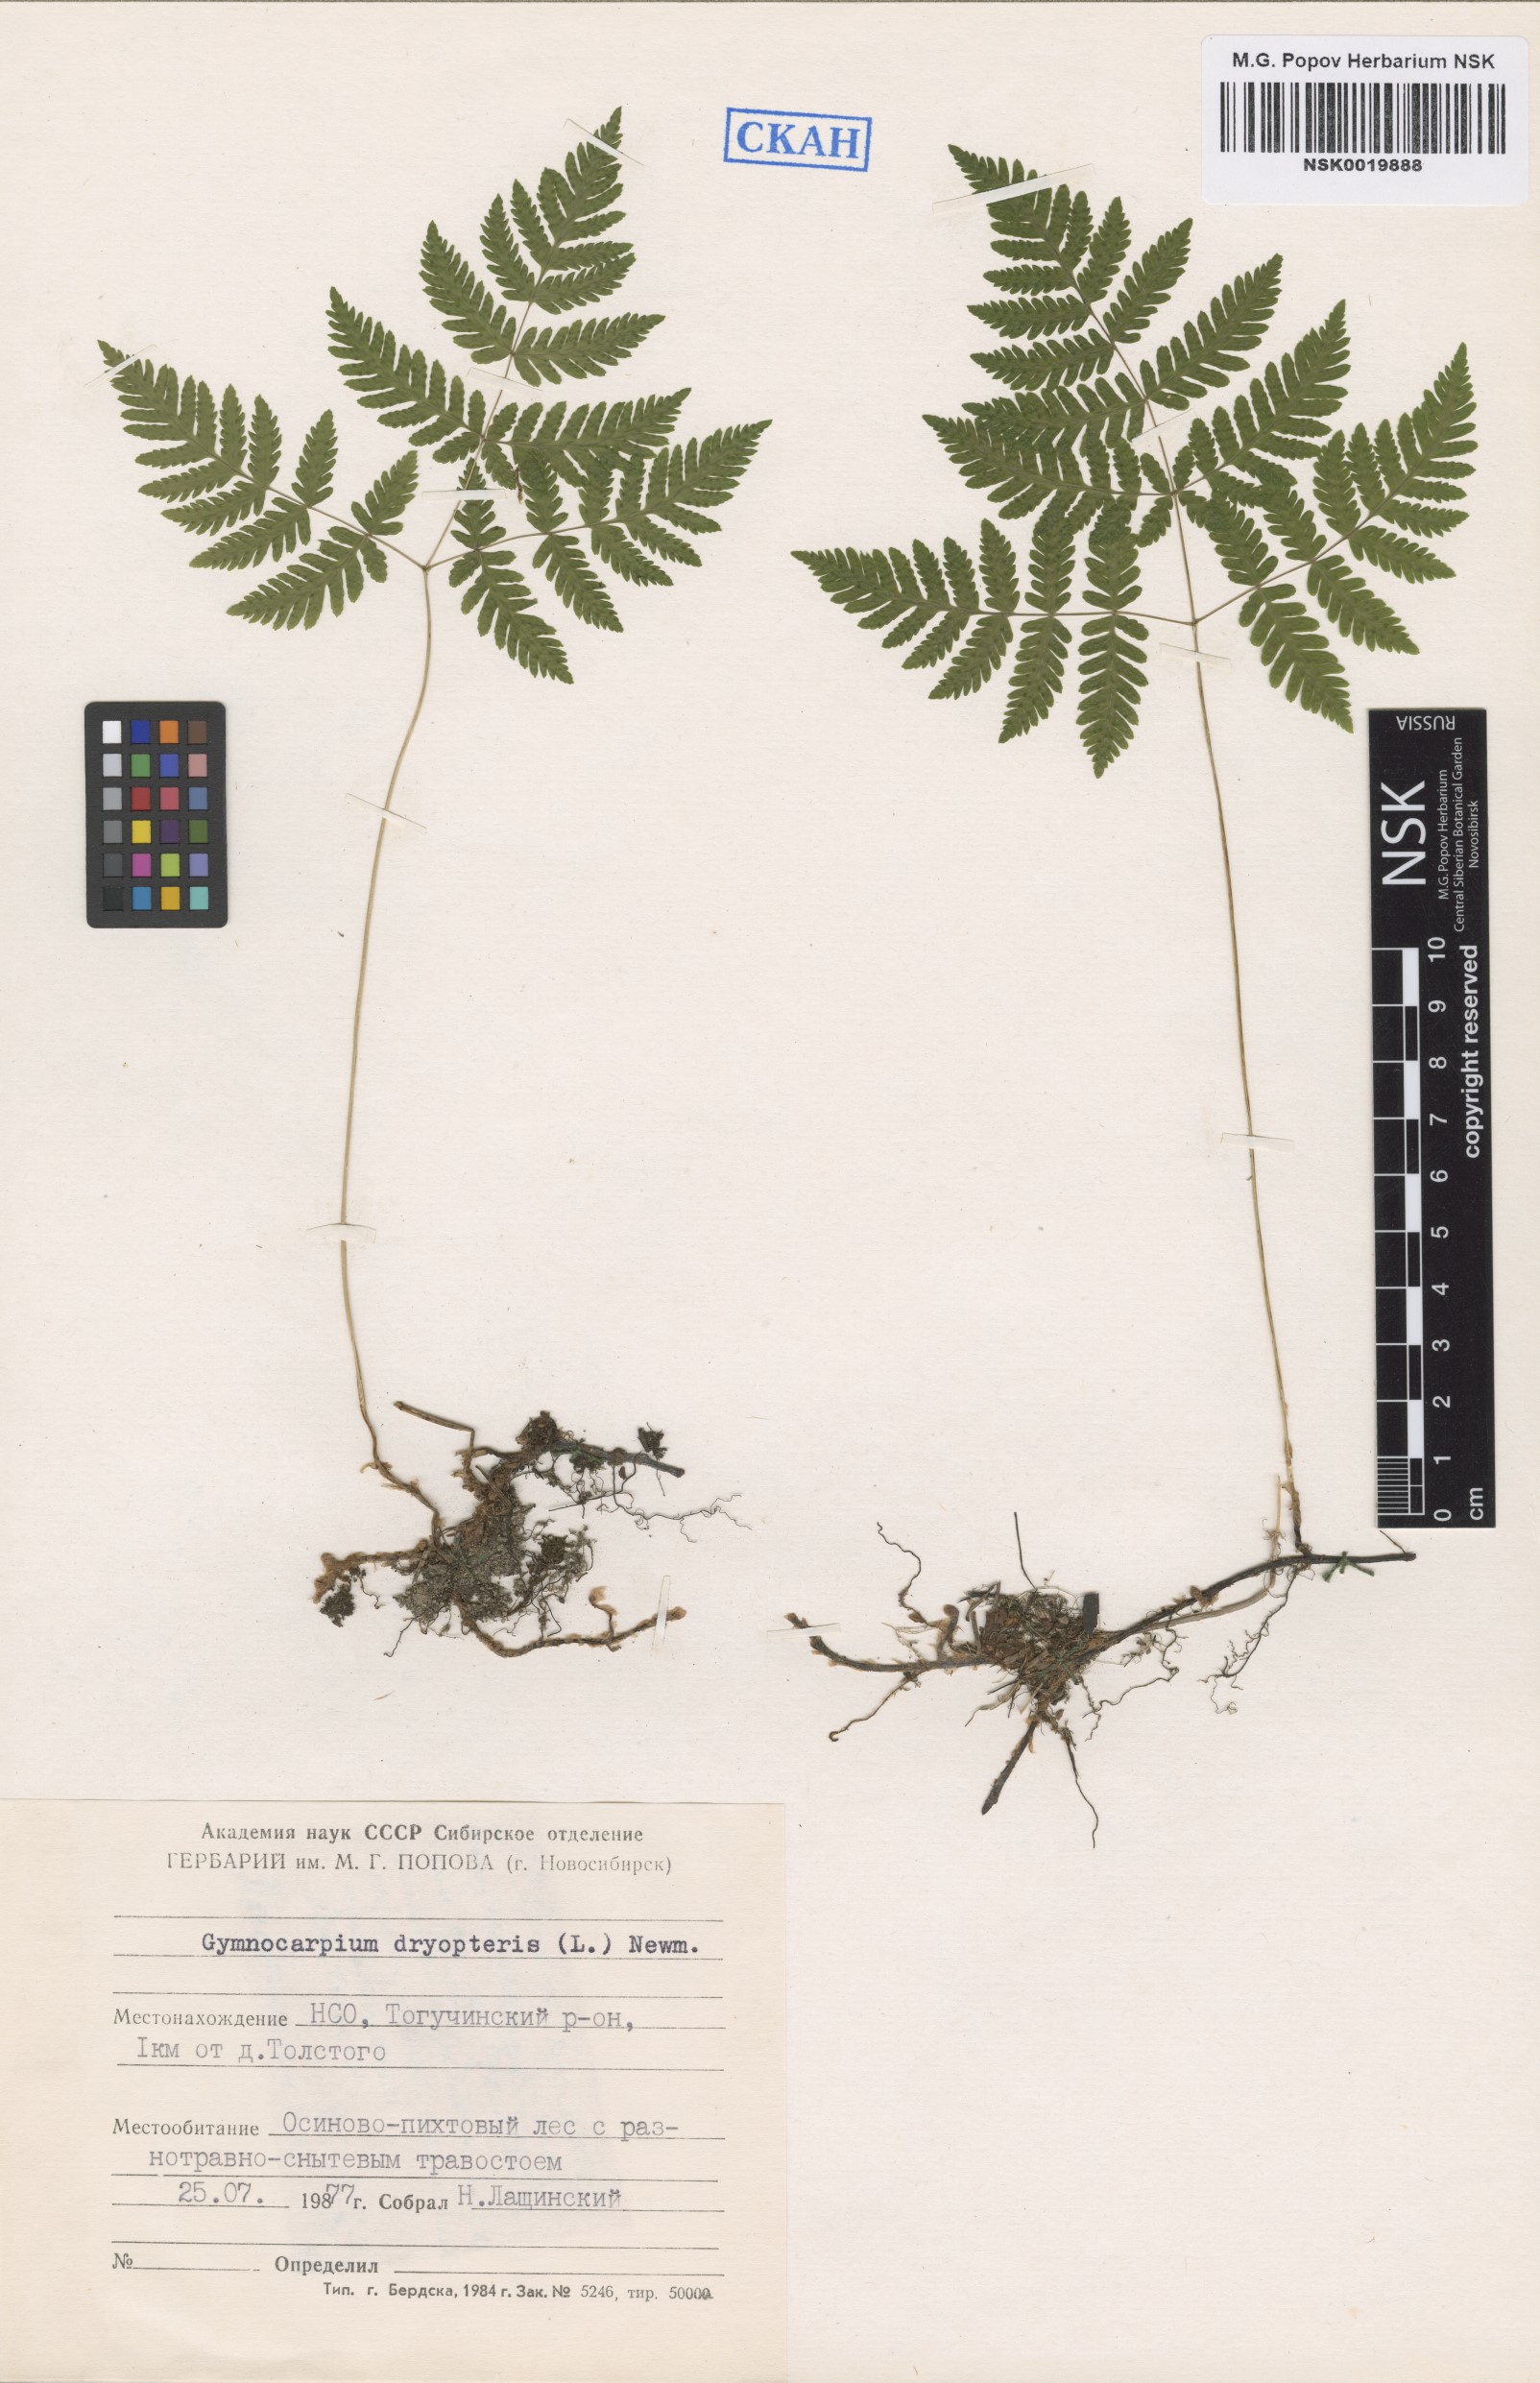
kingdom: Plantae
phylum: Tracheophyta
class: Polypodiopsida
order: Polypodiales
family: Cystopteridaceae
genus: Gymnocarpium
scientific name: Gymnocarpium dryopteris
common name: Oak fern
